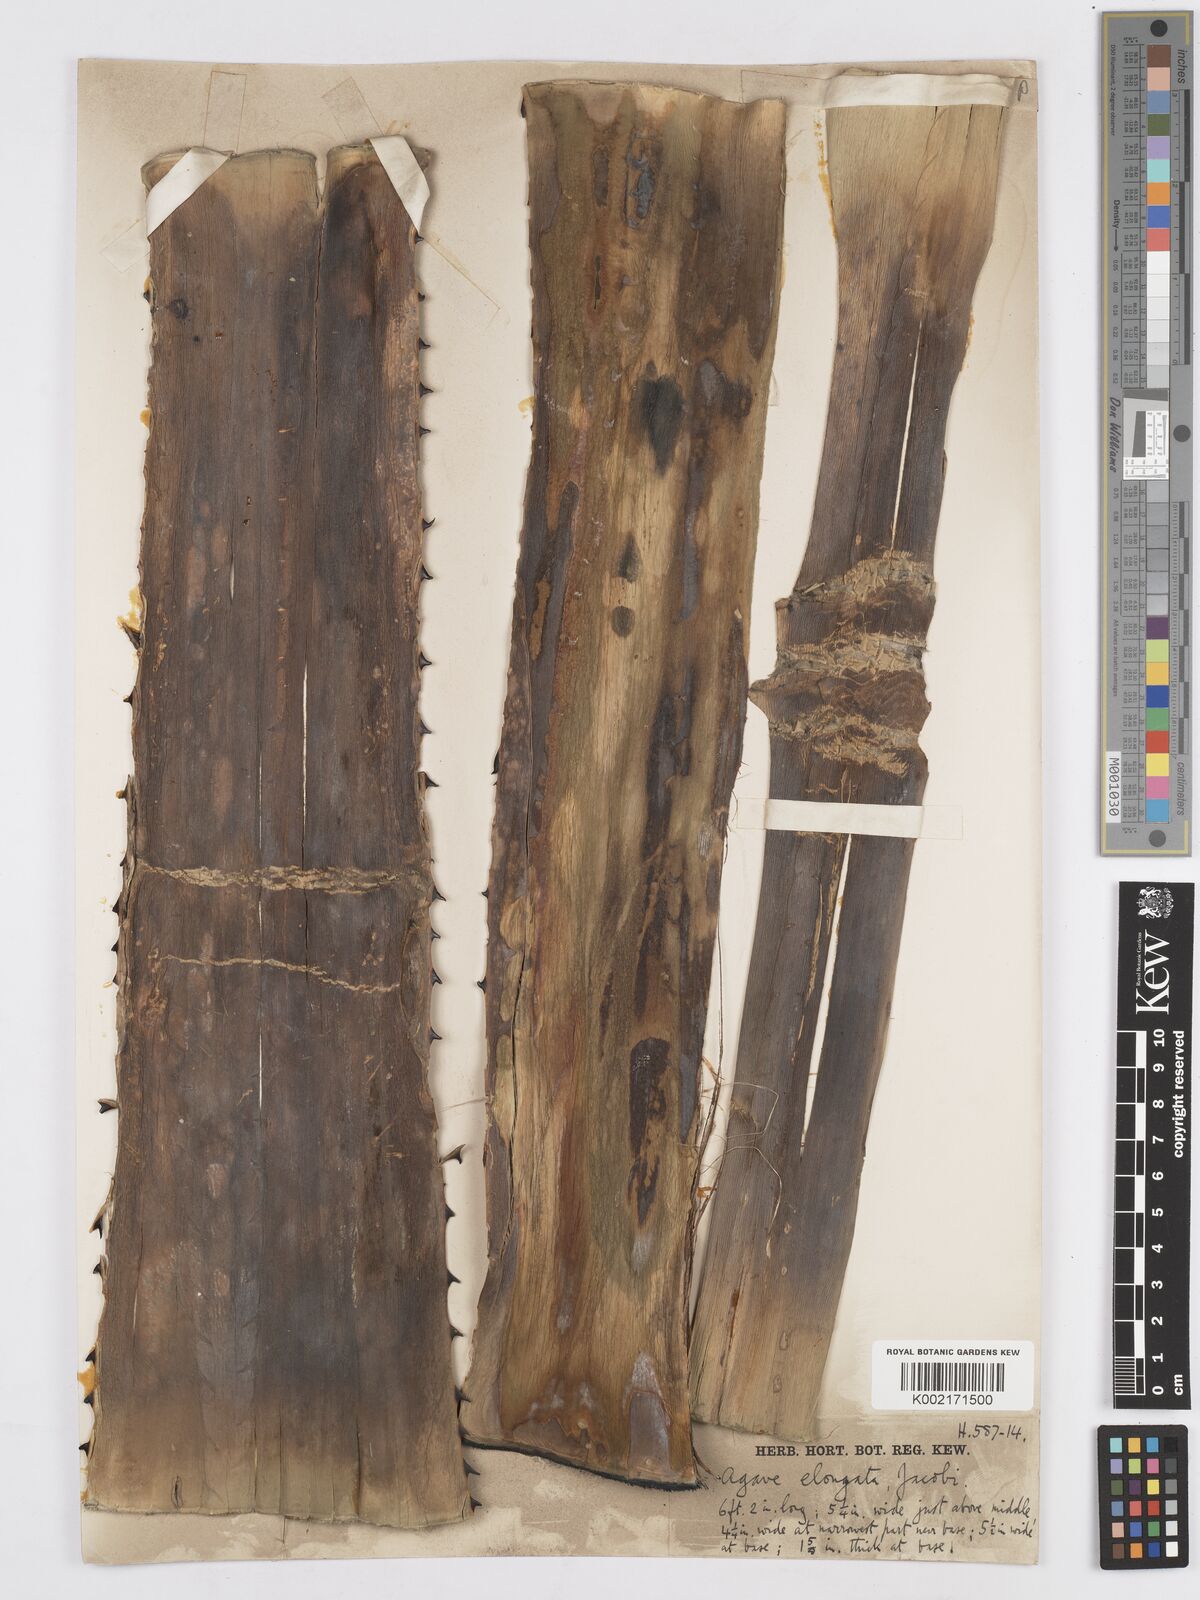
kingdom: Plantae
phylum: Tracheophyta
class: Liliopsida
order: Asparagales
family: Asparagaceae
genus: Agave
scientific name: Agave angustifolia
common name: Mescal agave
